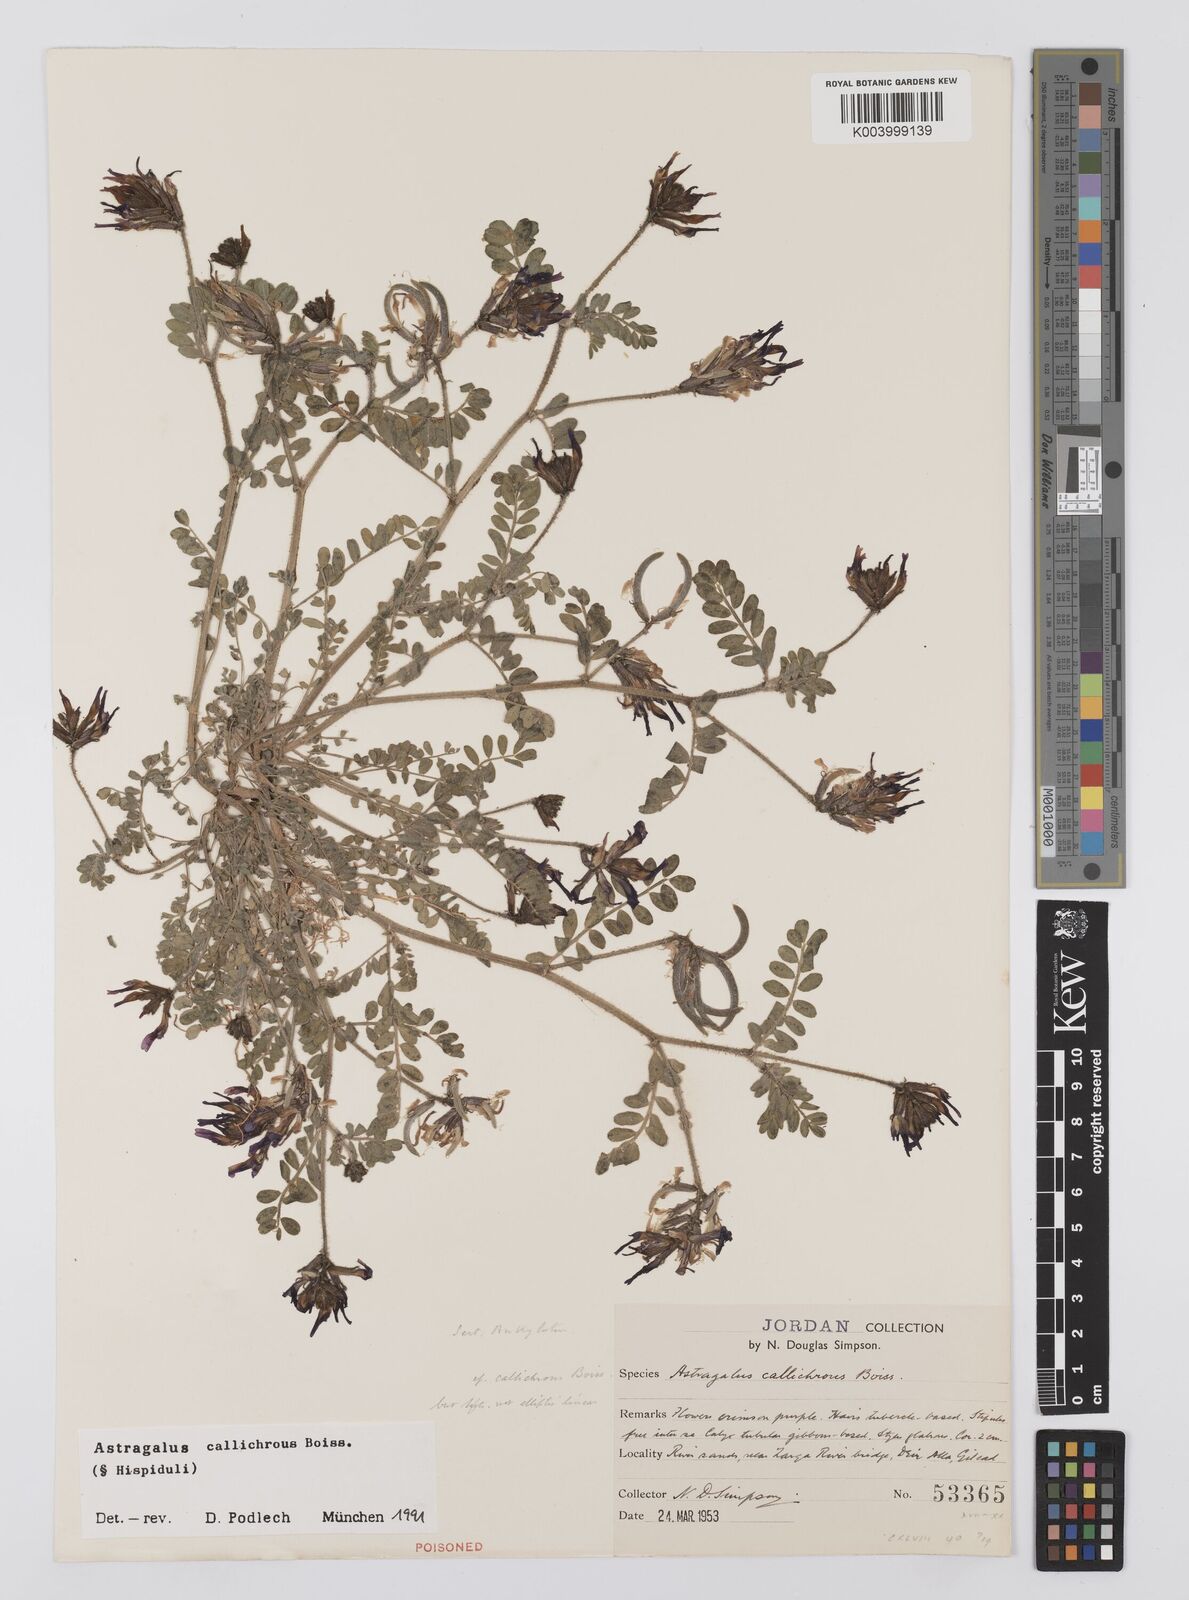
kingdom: Plantae
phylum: Tracheophyta
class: Magnoliopsida
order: Fabales
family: Fabaceae
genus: Astragalus
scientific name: Astragalus callichrous
